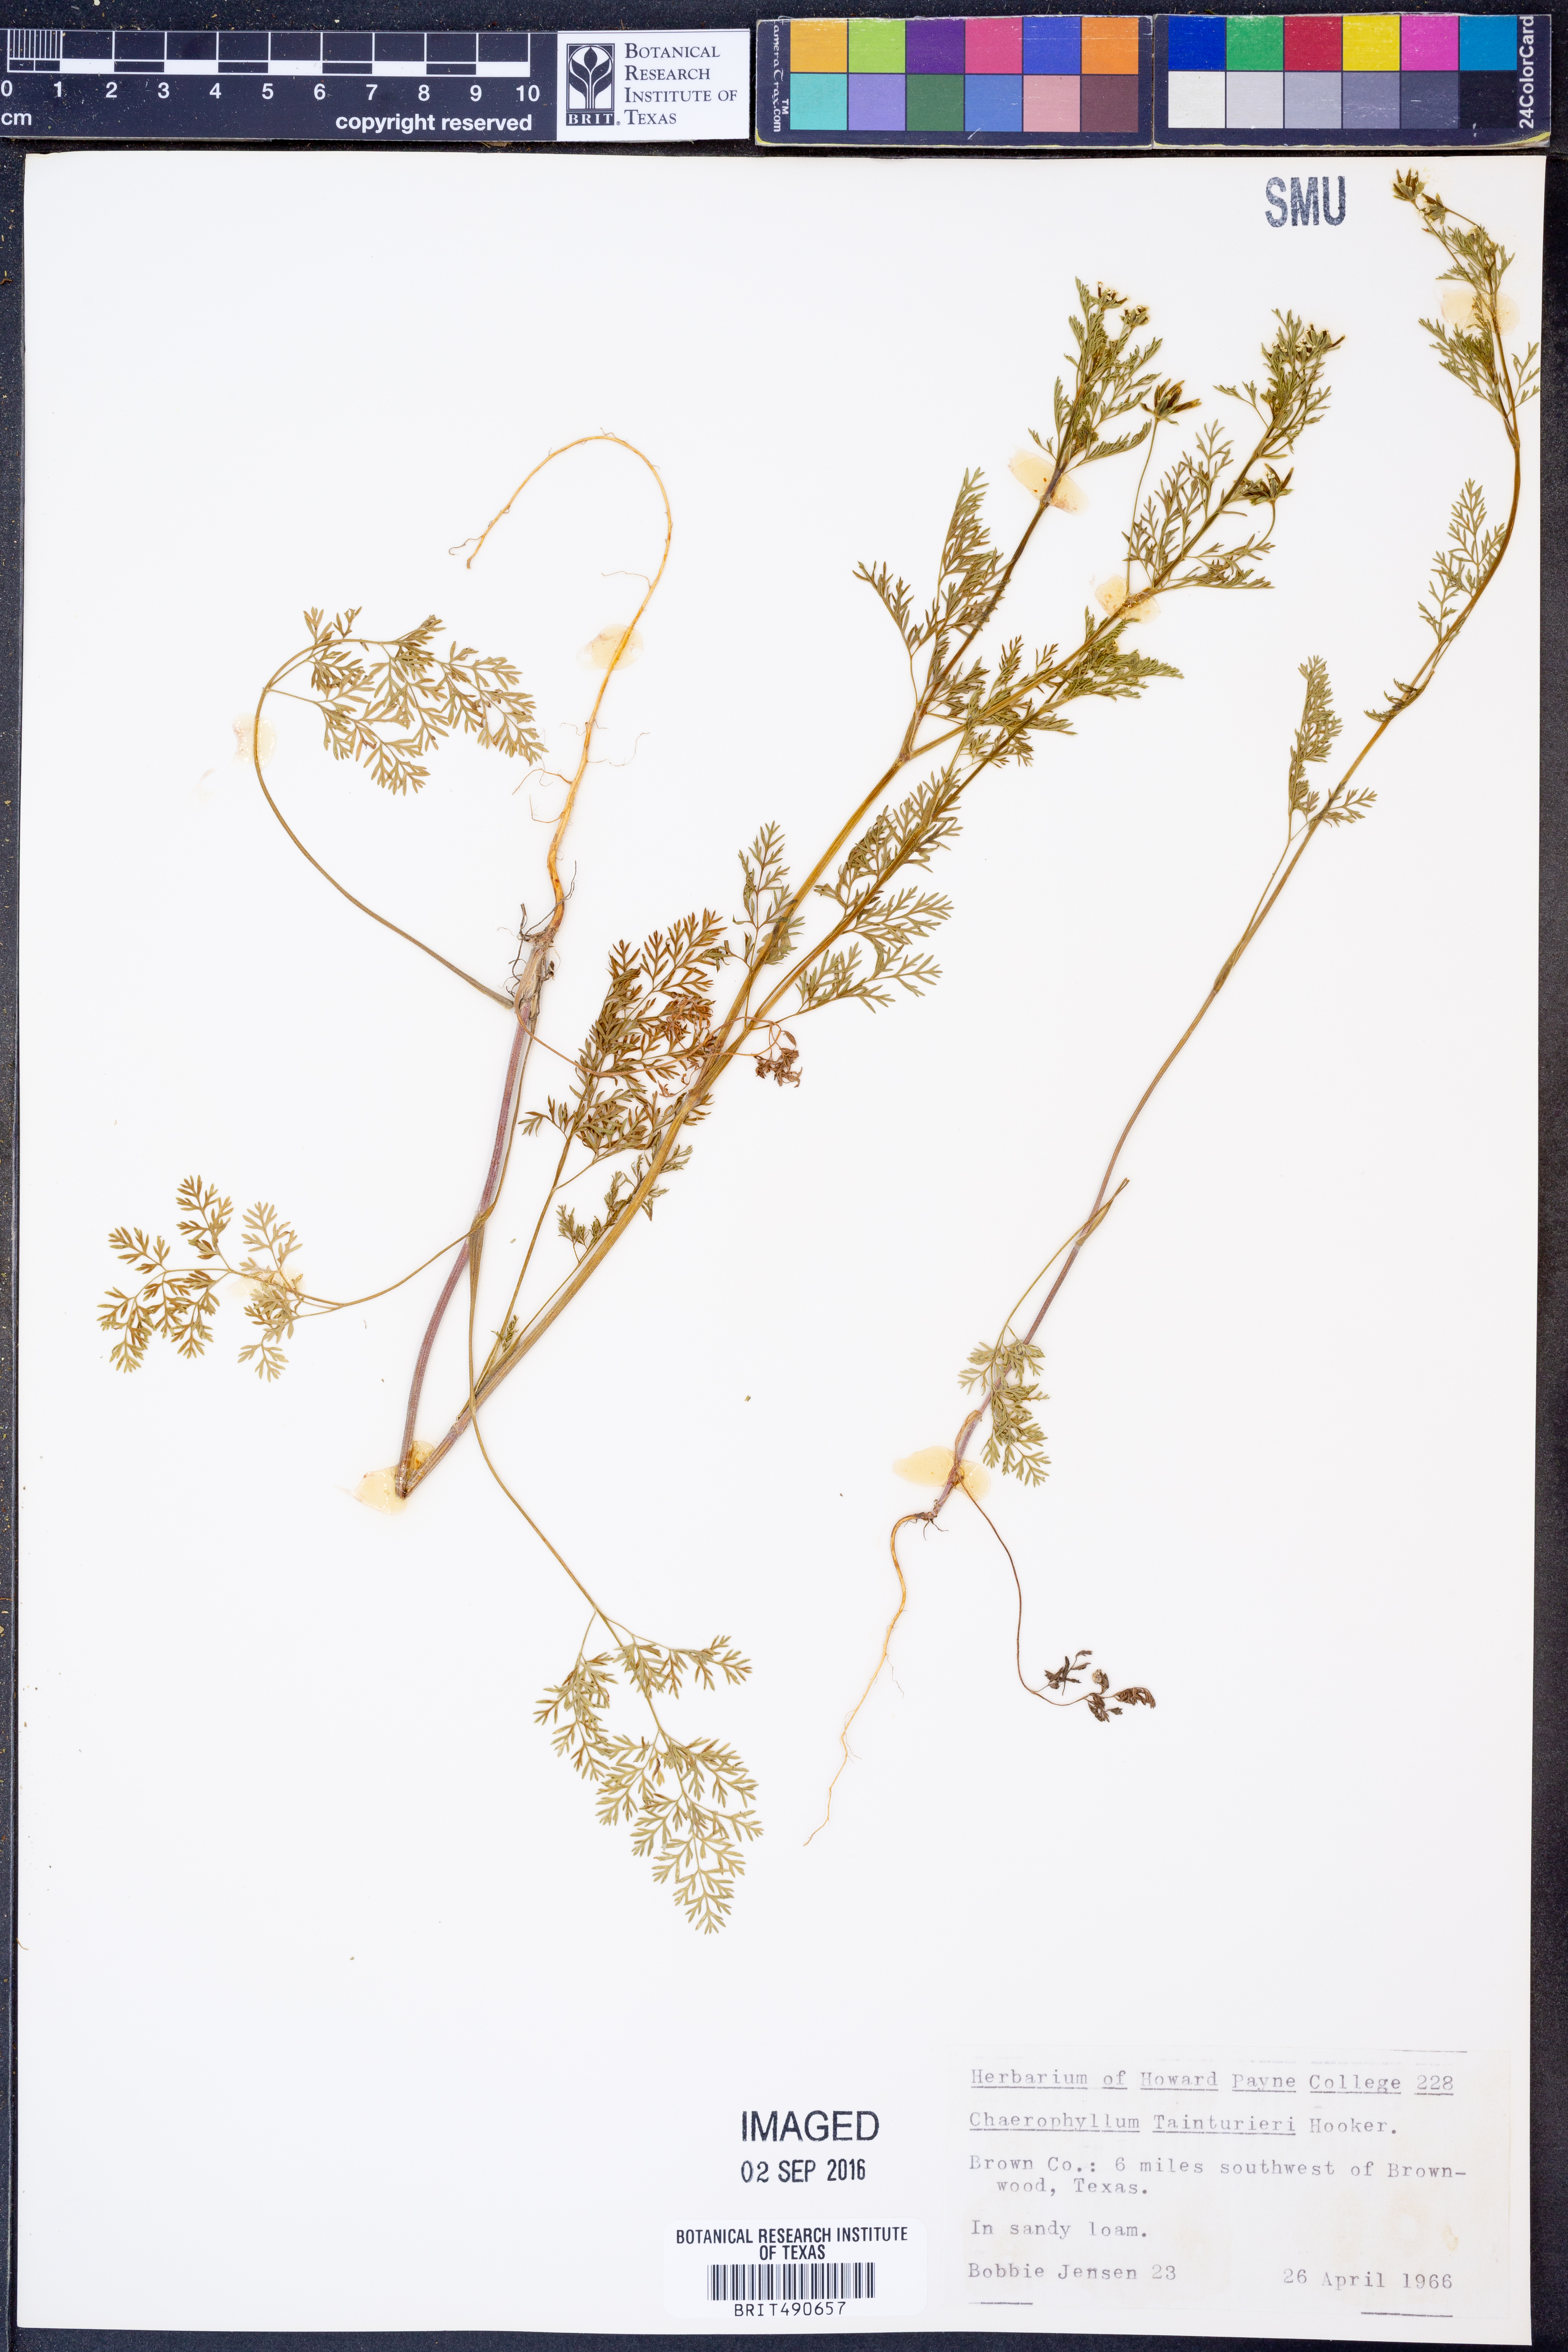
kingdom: Plantae
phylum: Tracheophyta
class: Magnoliopsida
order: Apiales
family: Apiaceae
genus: Chaerophyllum
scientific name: Chaerophyllum tainturieri
